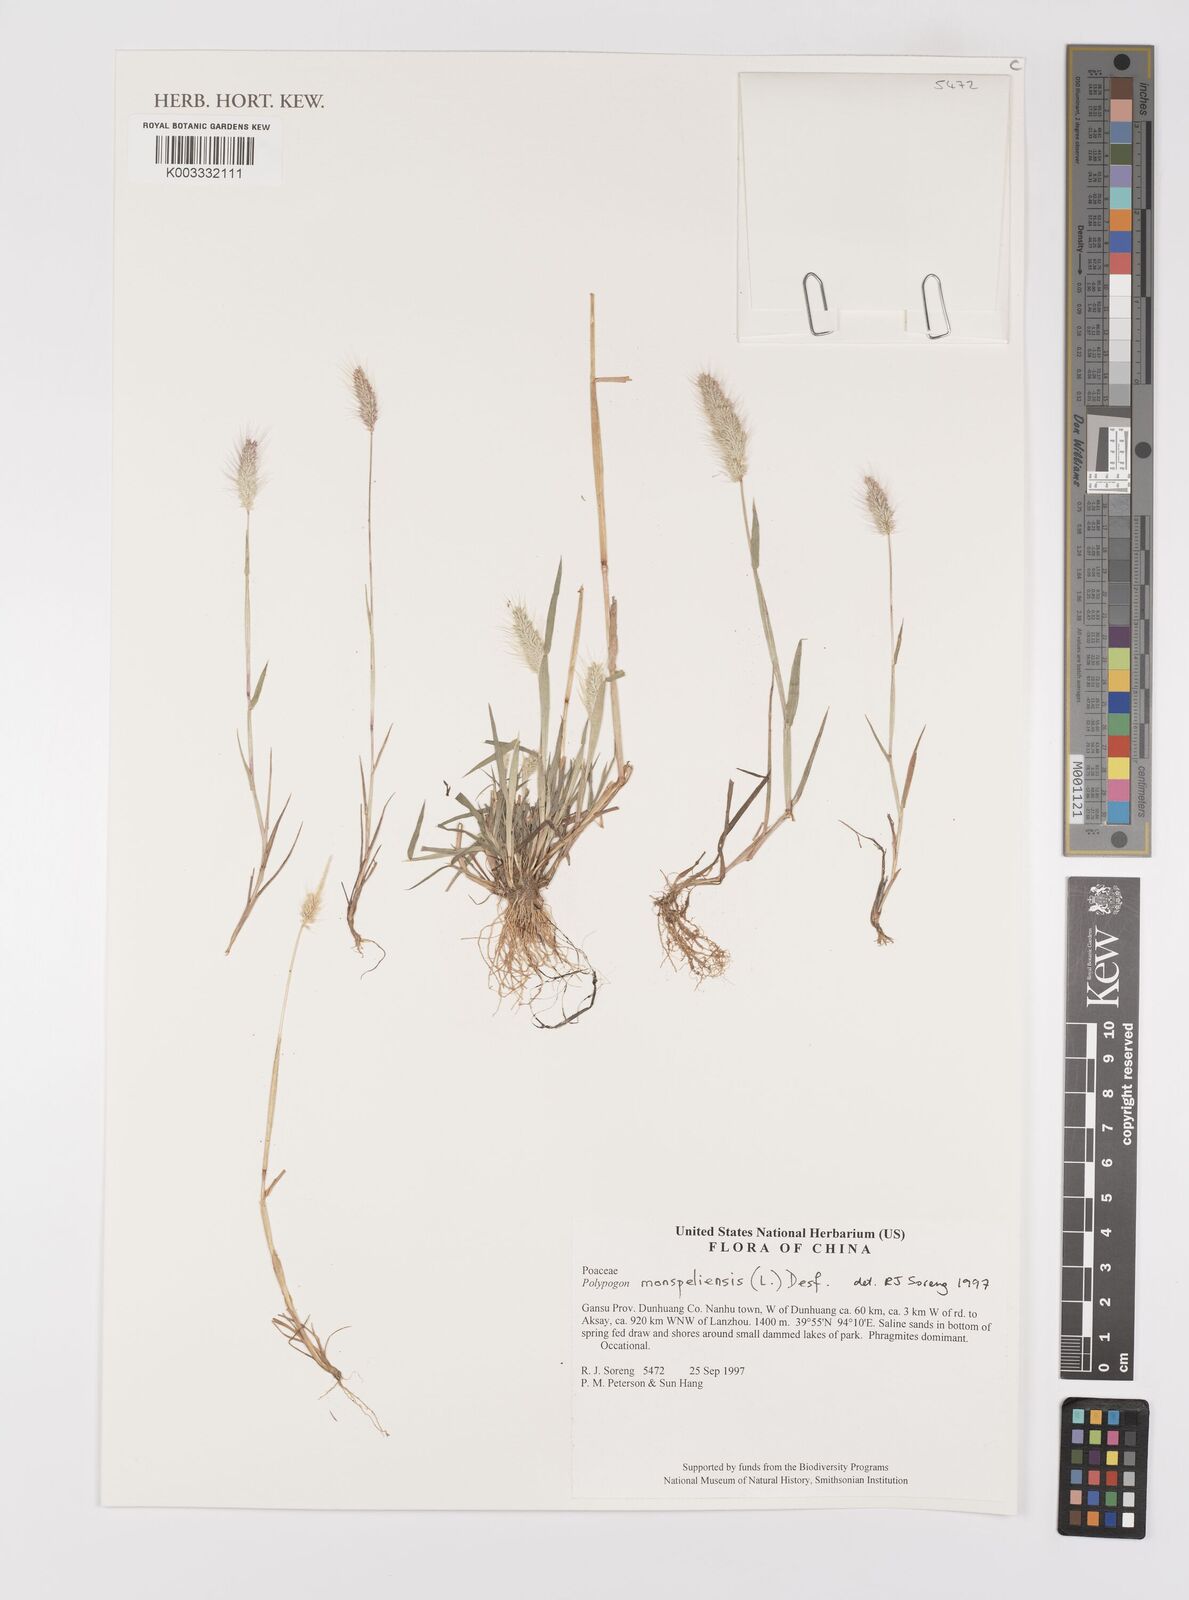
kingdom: Plantae
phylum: Tracheophyta
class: Liliopsida
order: Poales
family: Poaceae
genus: Polypogon
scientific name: Polypogon monspeliensis
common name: Annual rabbitsfoot grass
